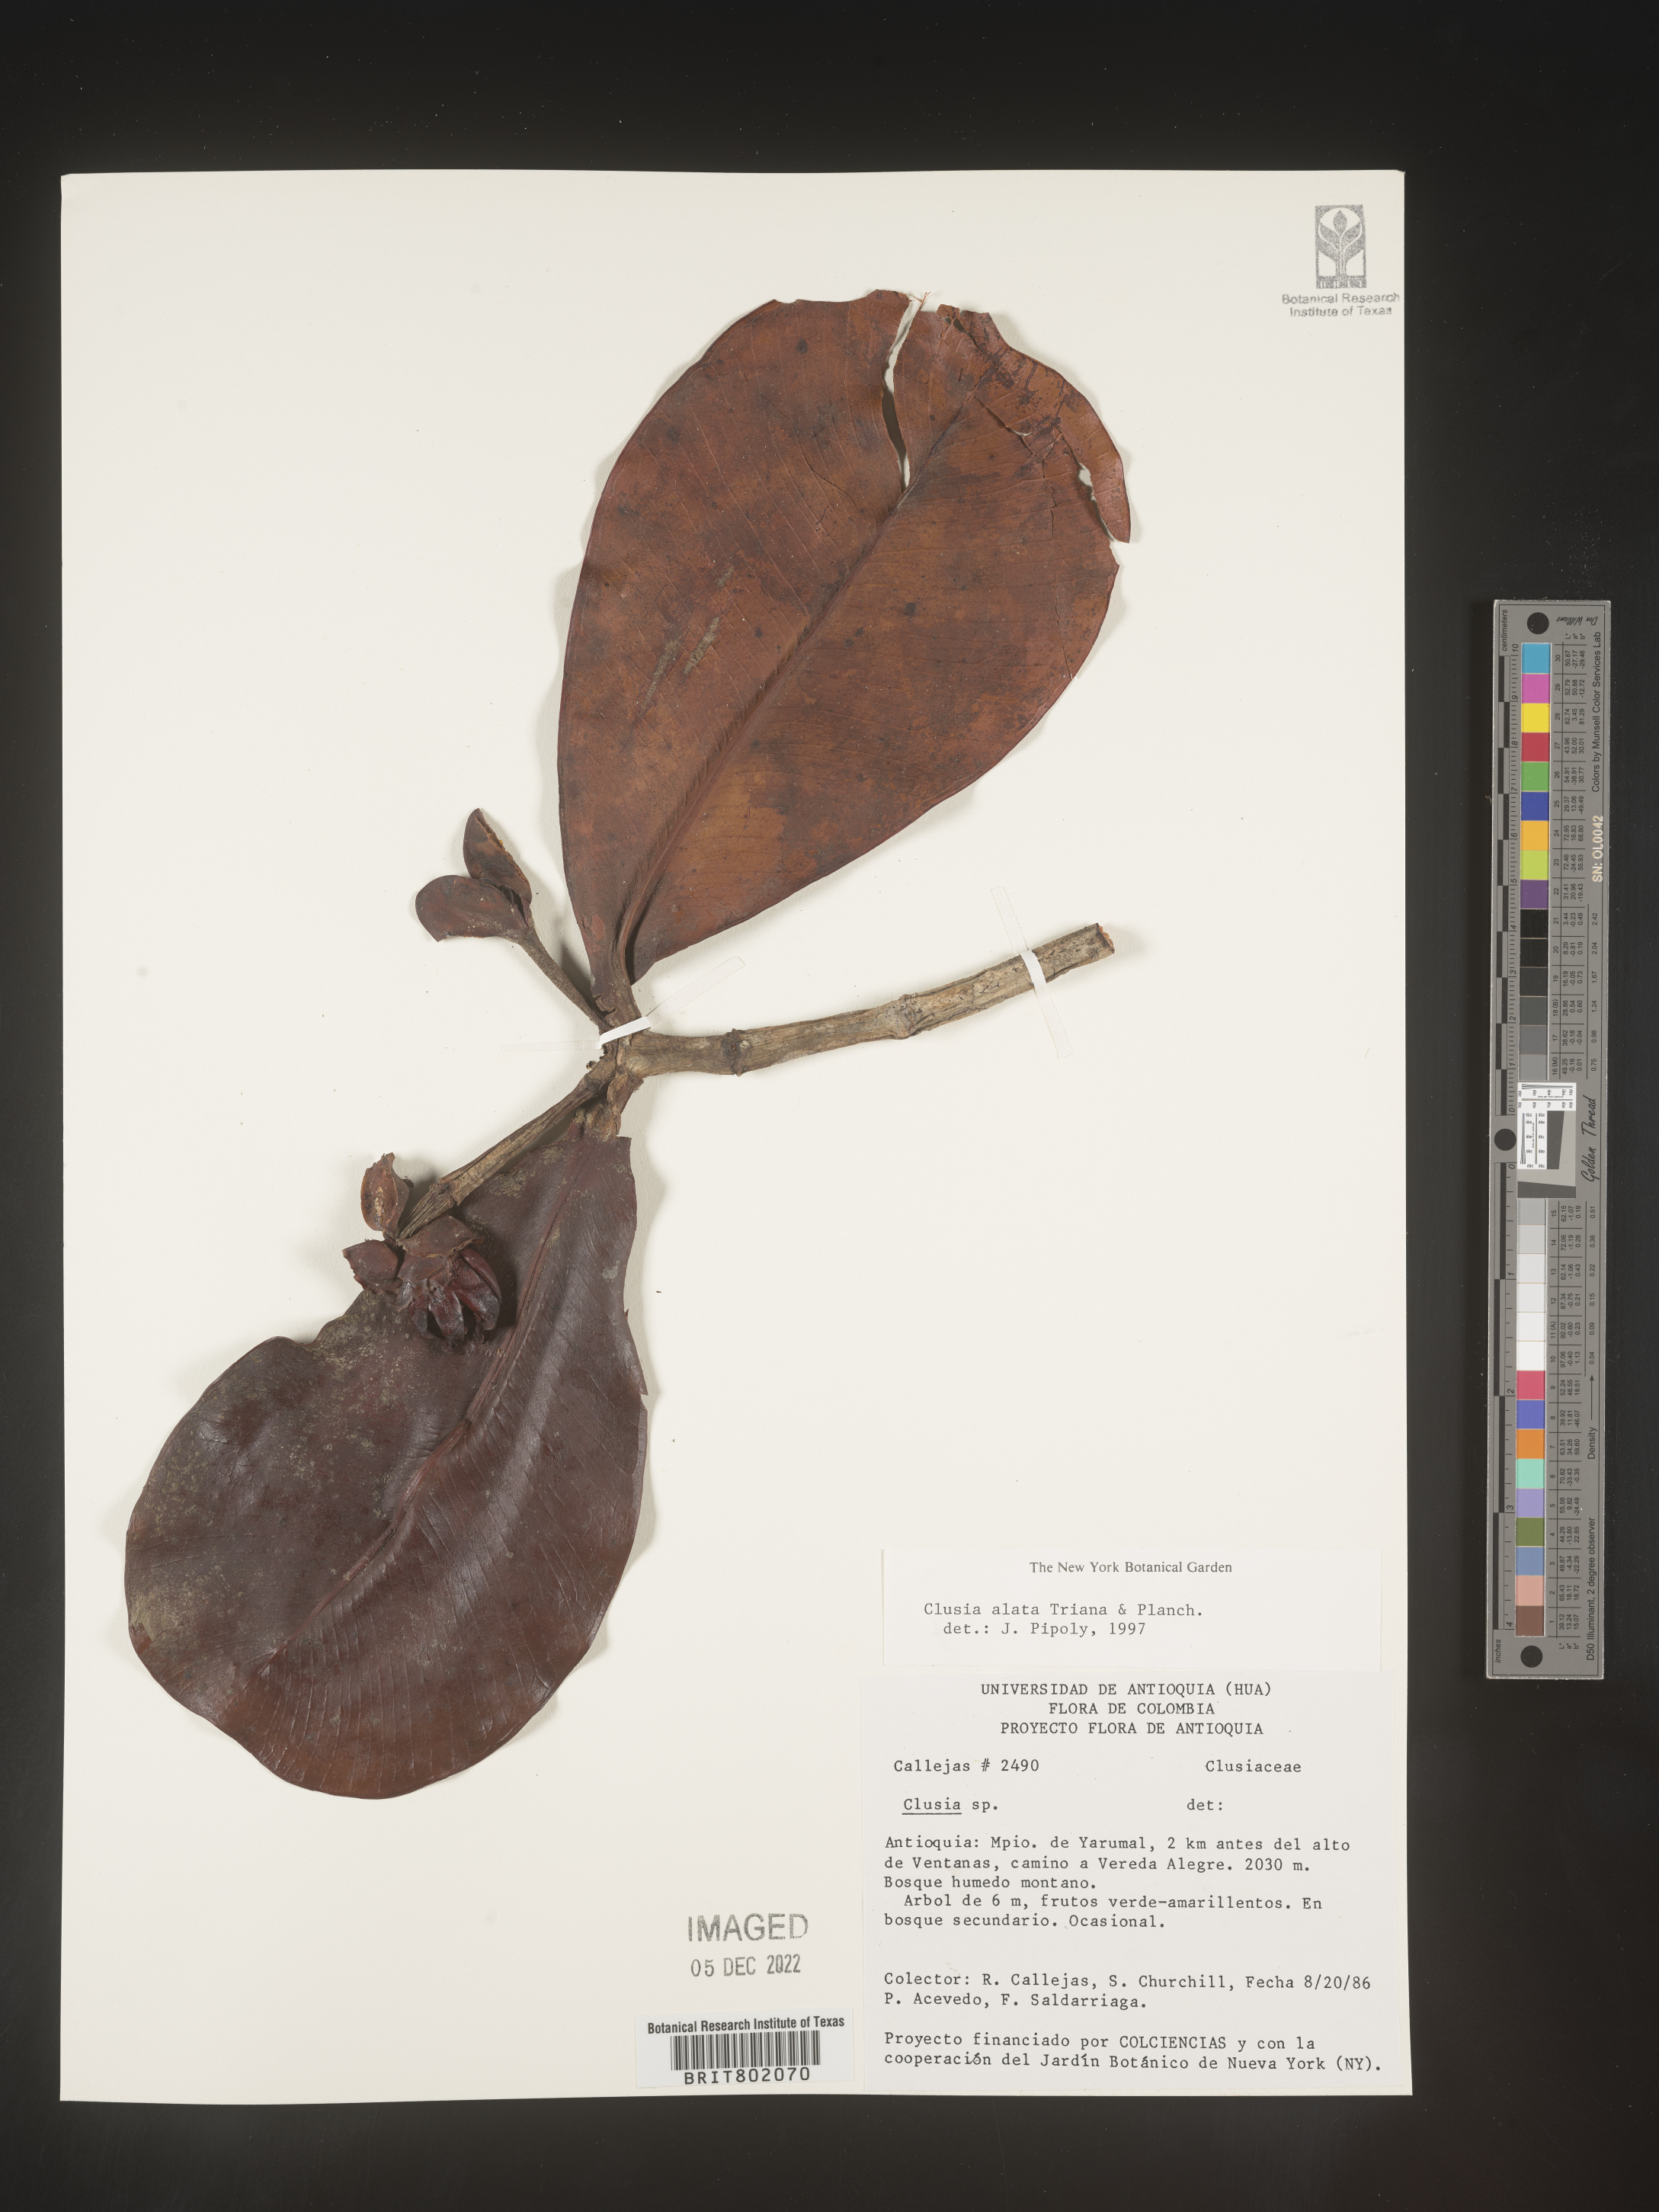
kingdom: Plantae
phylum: Tracheophyta
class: Magnoliopsida
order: Malpighiales
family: Clusiaceae
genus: Clusia
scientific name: Clusia alata
